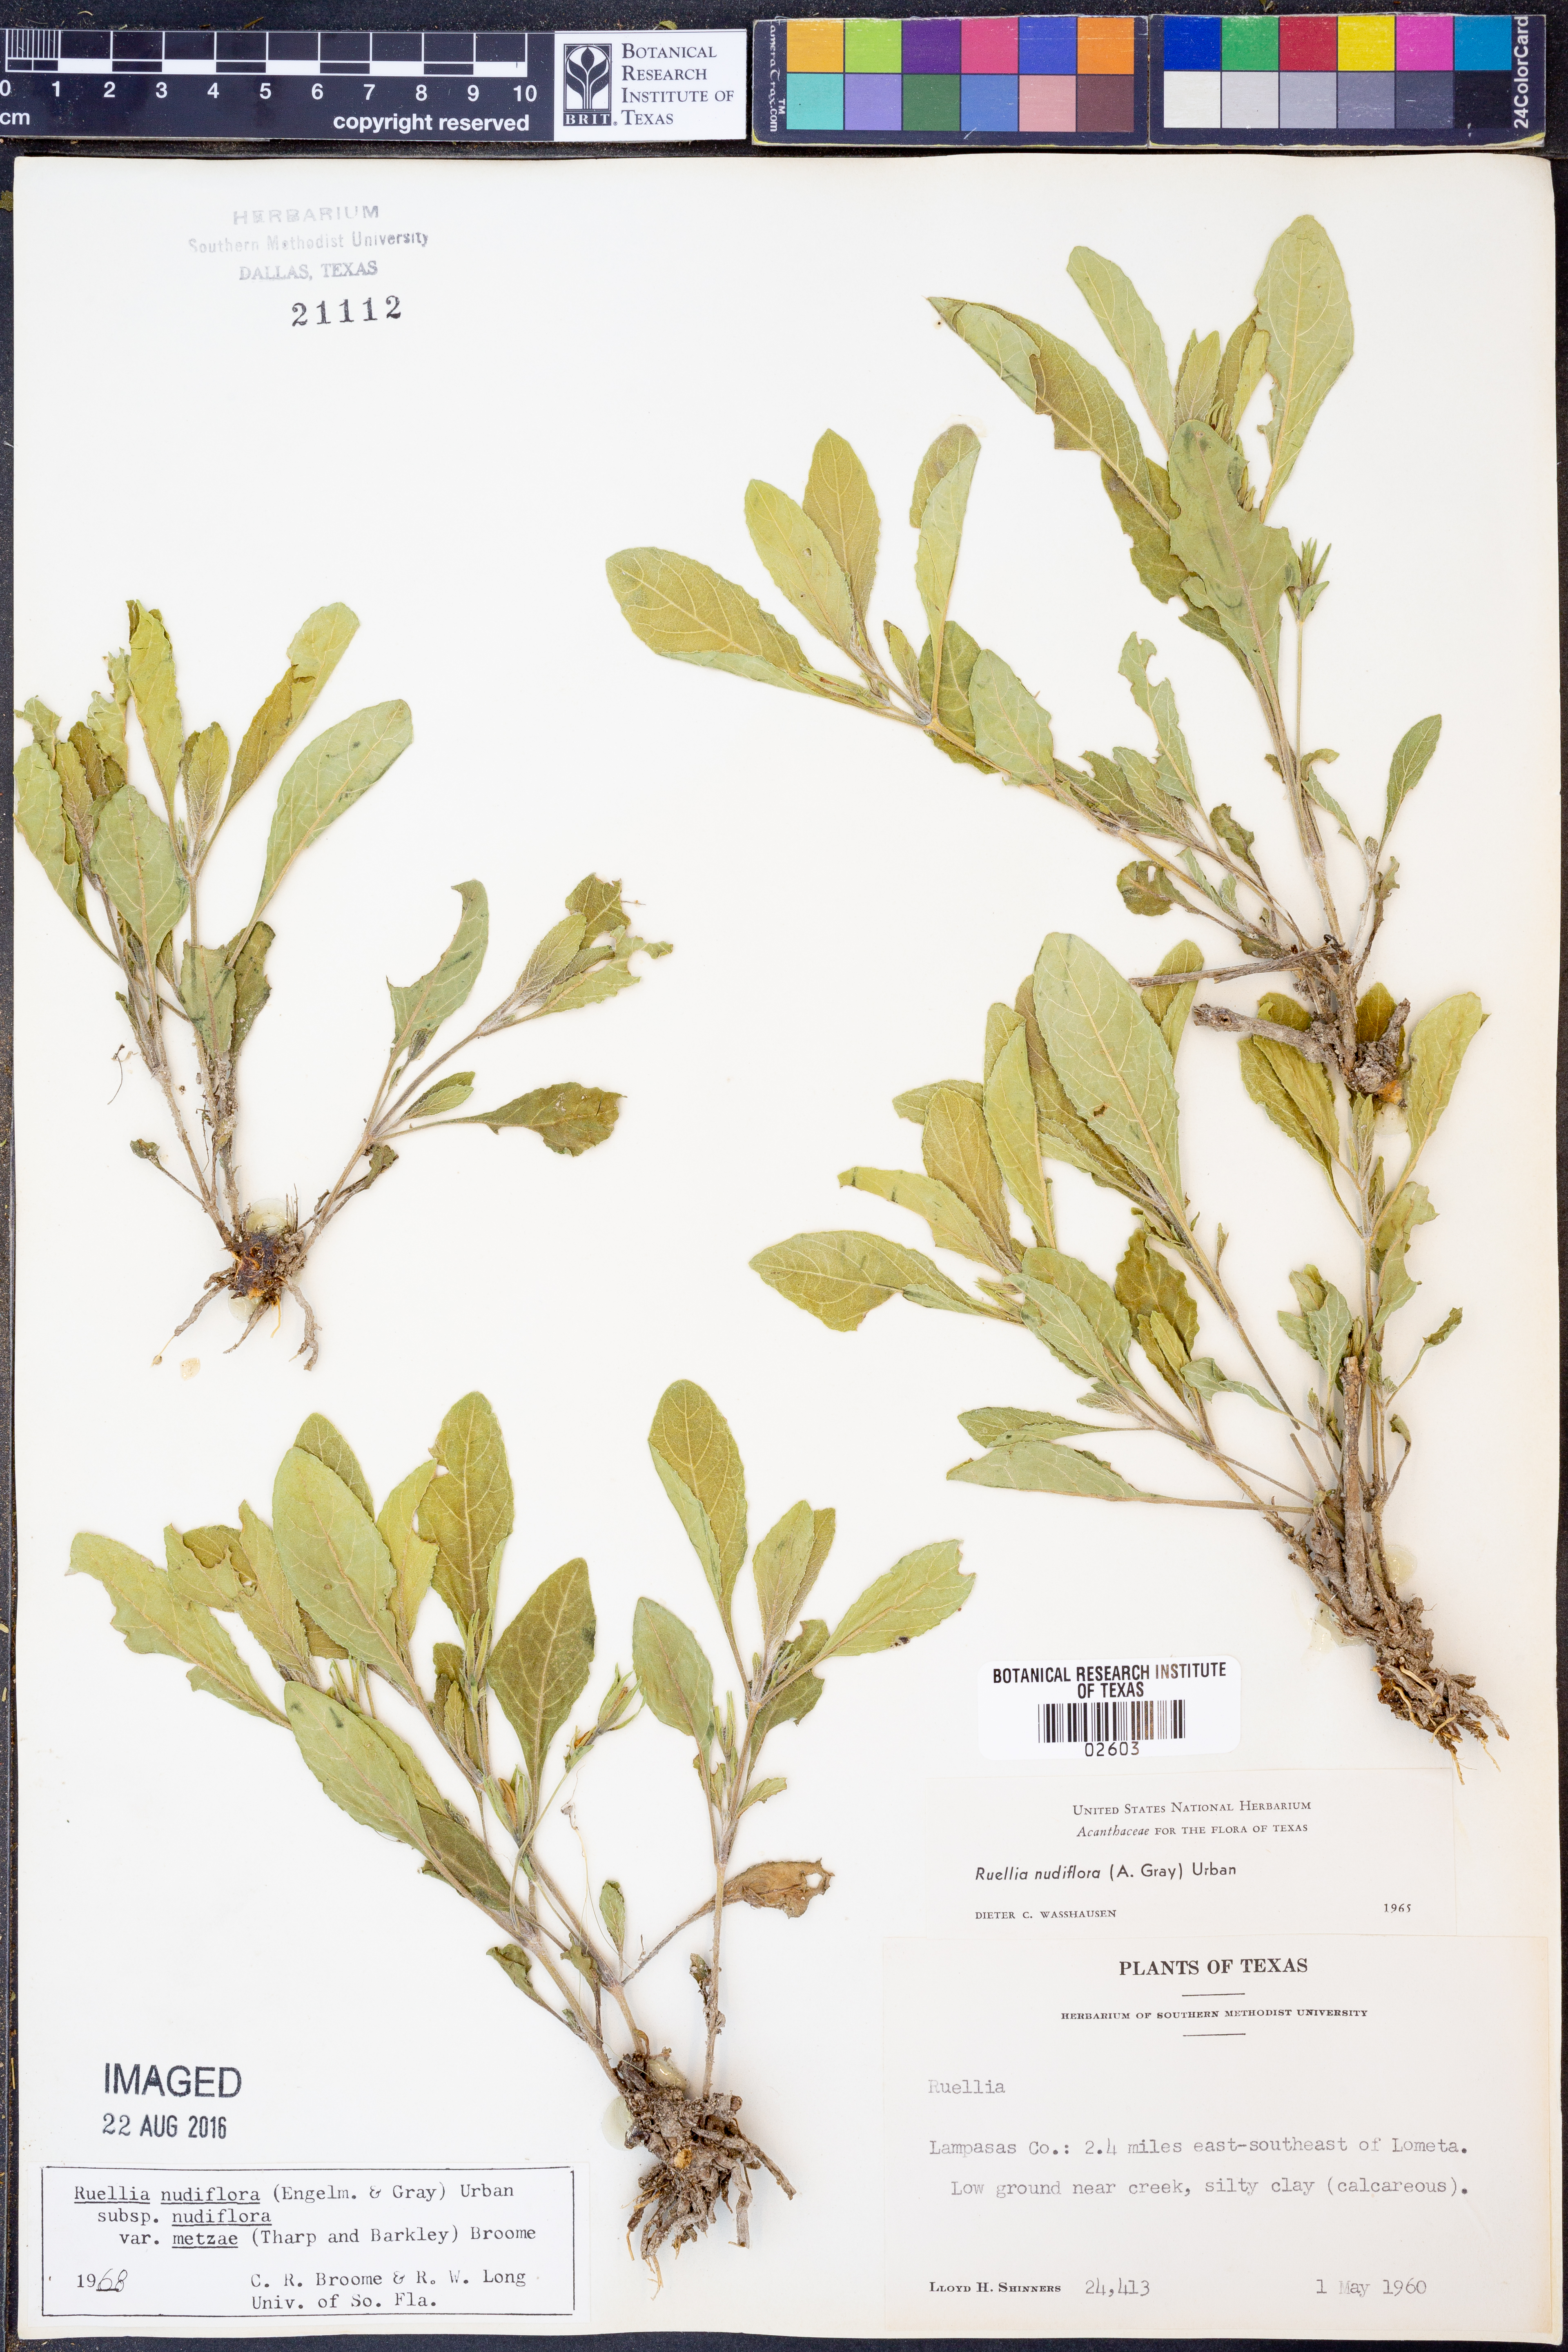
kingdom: Plantae
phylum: Tracheophyta
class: Magnoliopsida
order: Lamiales
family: Acanthaceae
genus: Ruellia
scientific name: Ruellia ciliatiflora
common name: Hairyflower wild petunia
